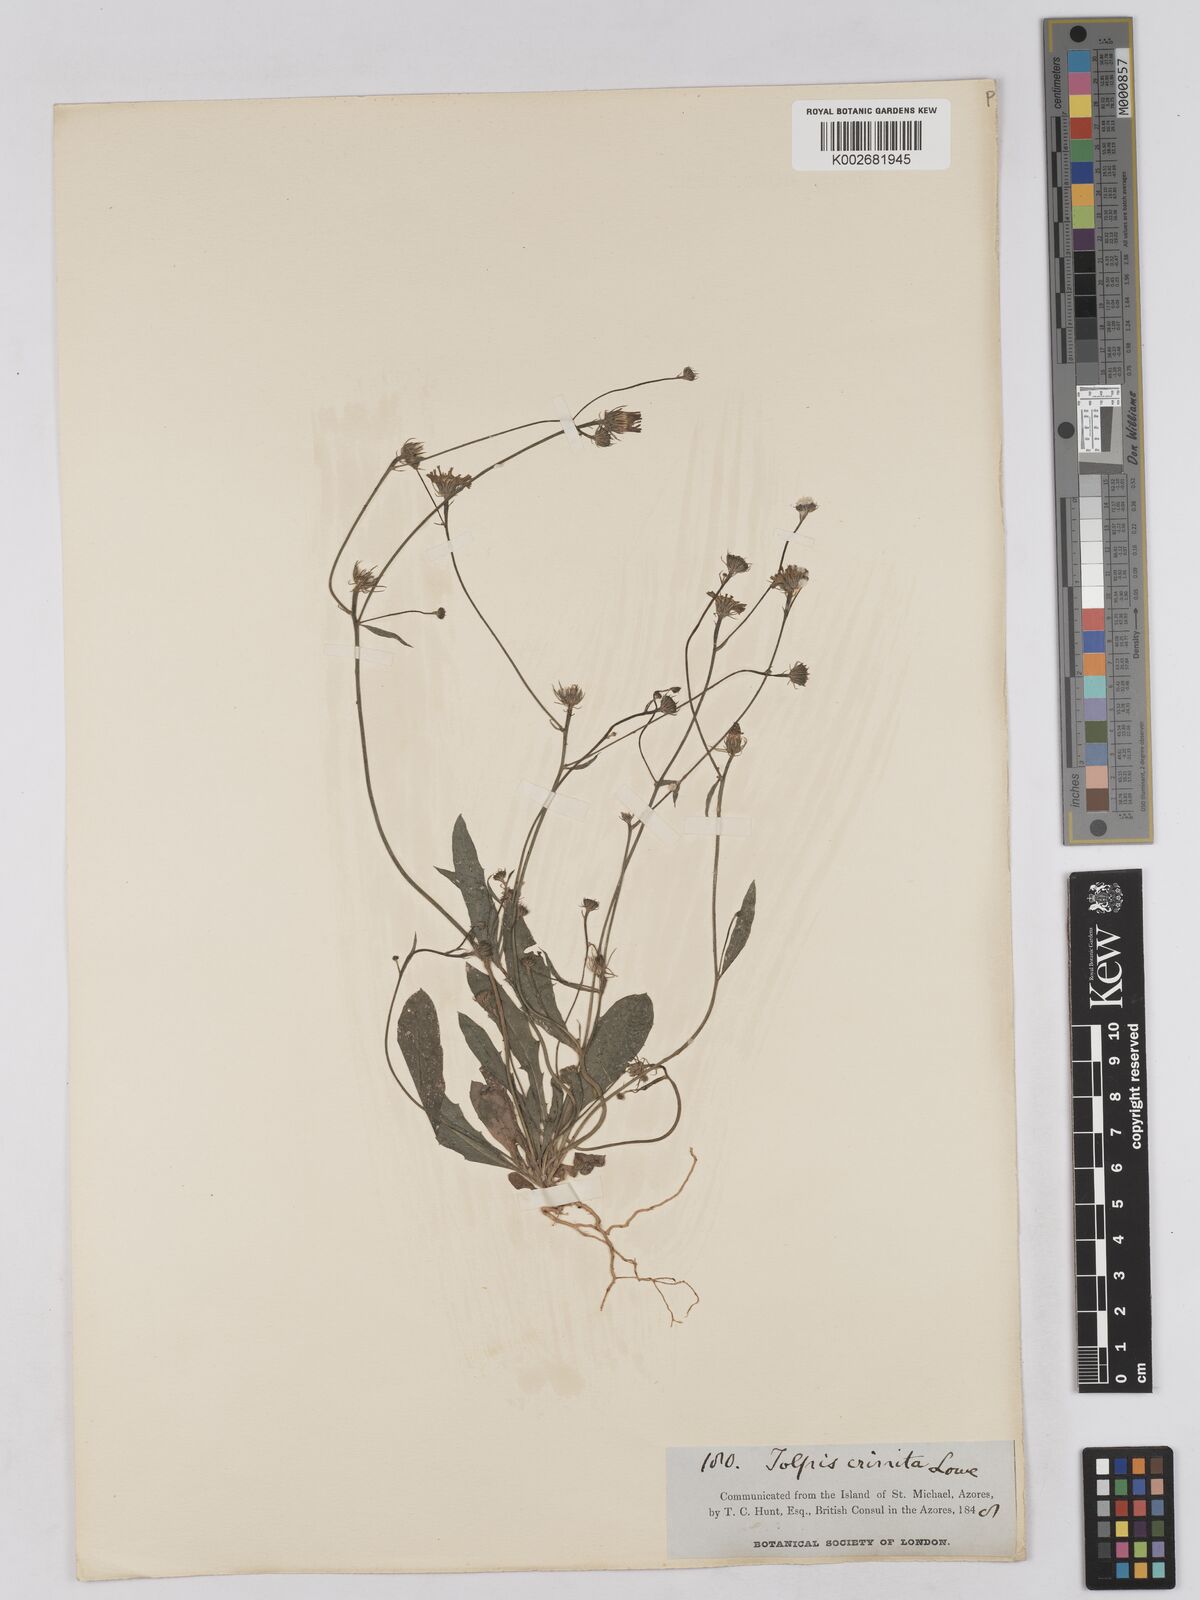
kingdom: Plantae
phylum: Tracheophyta
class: Magnoliopsida
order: Asterales
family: Asteraceae
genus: Tolpis
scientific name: Tolpis umbellata
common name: Yellow hawkweed
